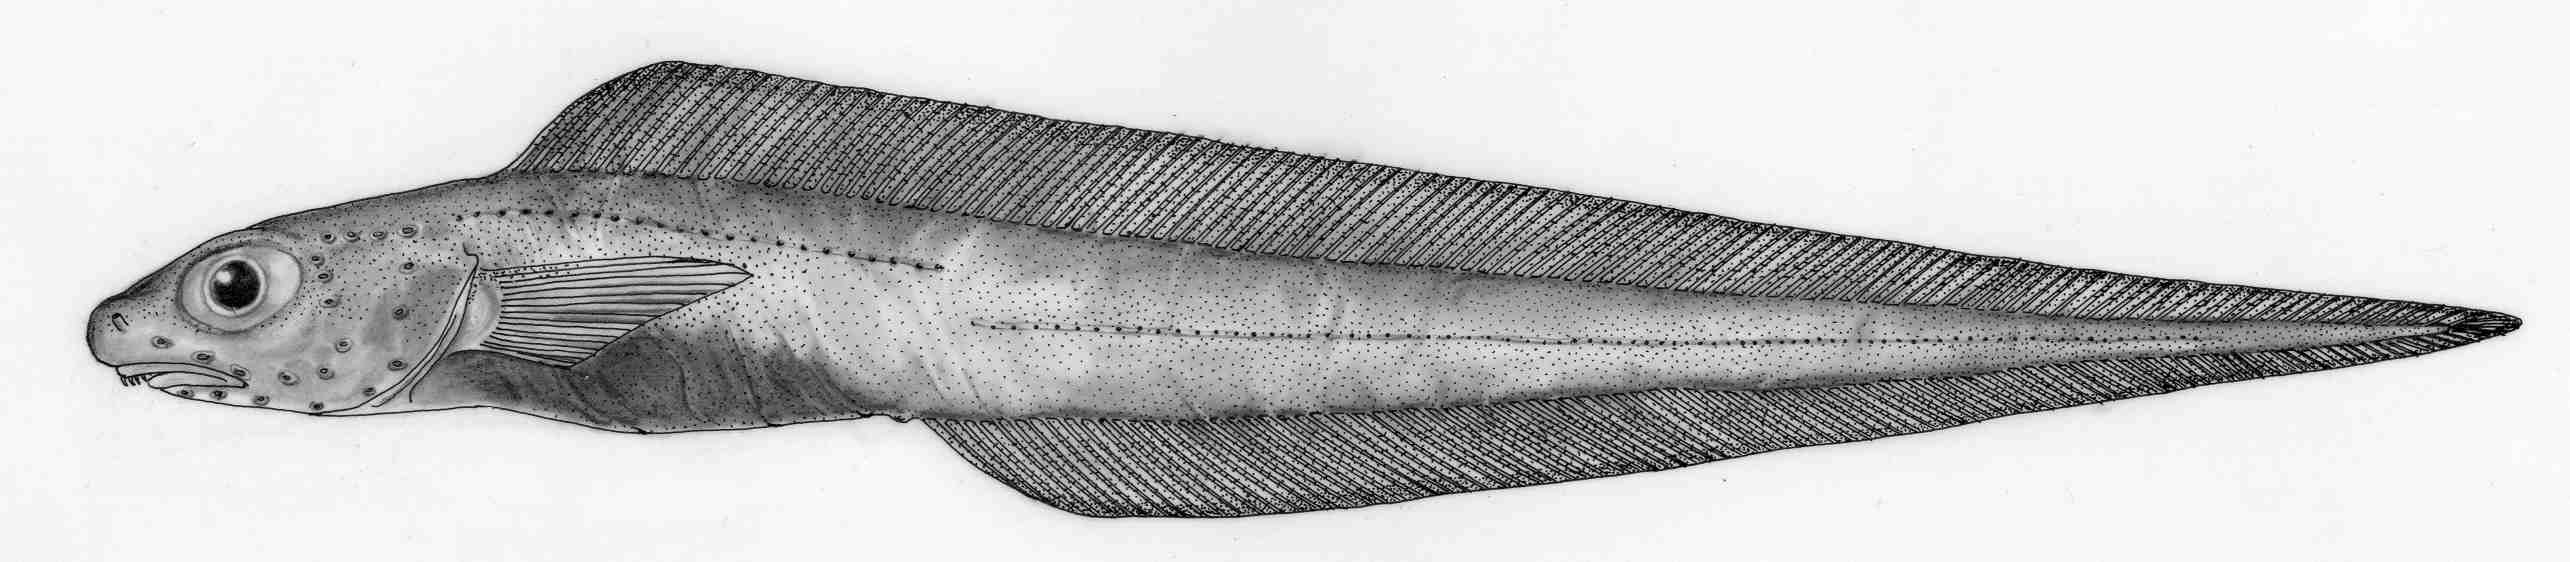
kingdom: Animalia
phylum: Chordata
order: Perciformes
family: Zoarcidae
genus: Bothrocara
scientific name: Bothrocara pusillum
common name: Alaska eelpout
